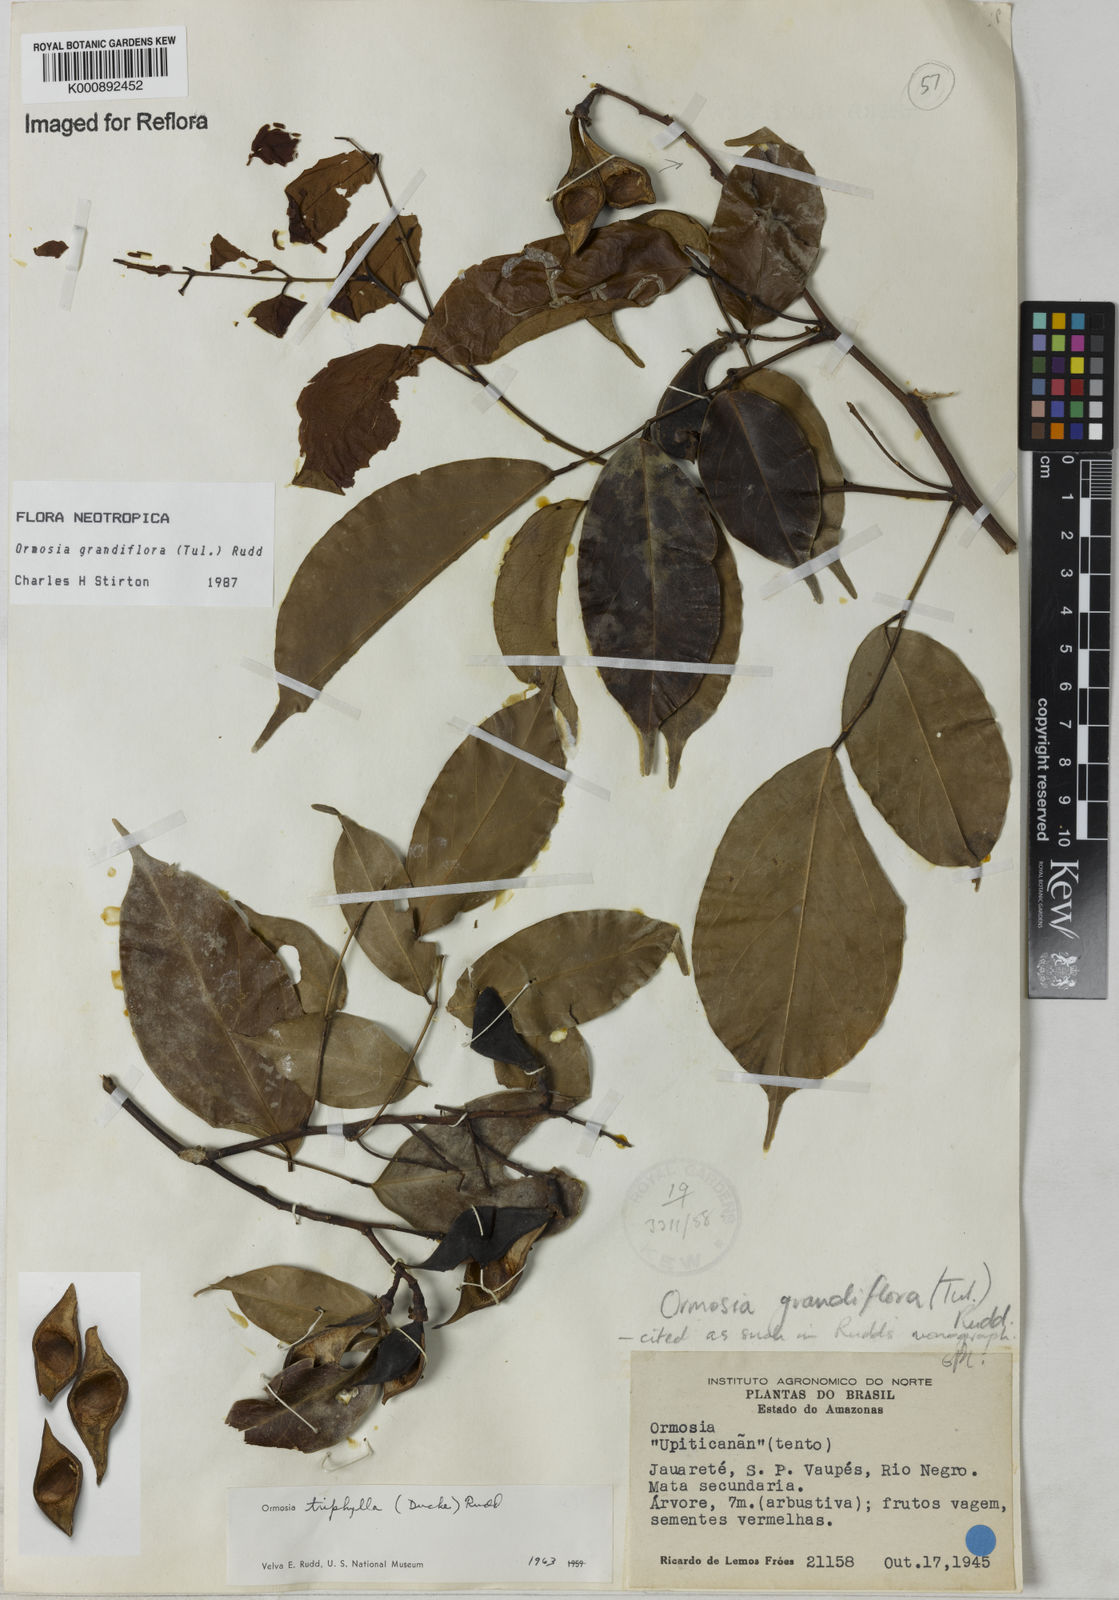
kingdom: Plantae
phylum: Tracheophyta
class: Magnoliopsida
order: Fabales
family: Fabaceae
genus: Ormosia
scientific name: Ormosia grandiflora
